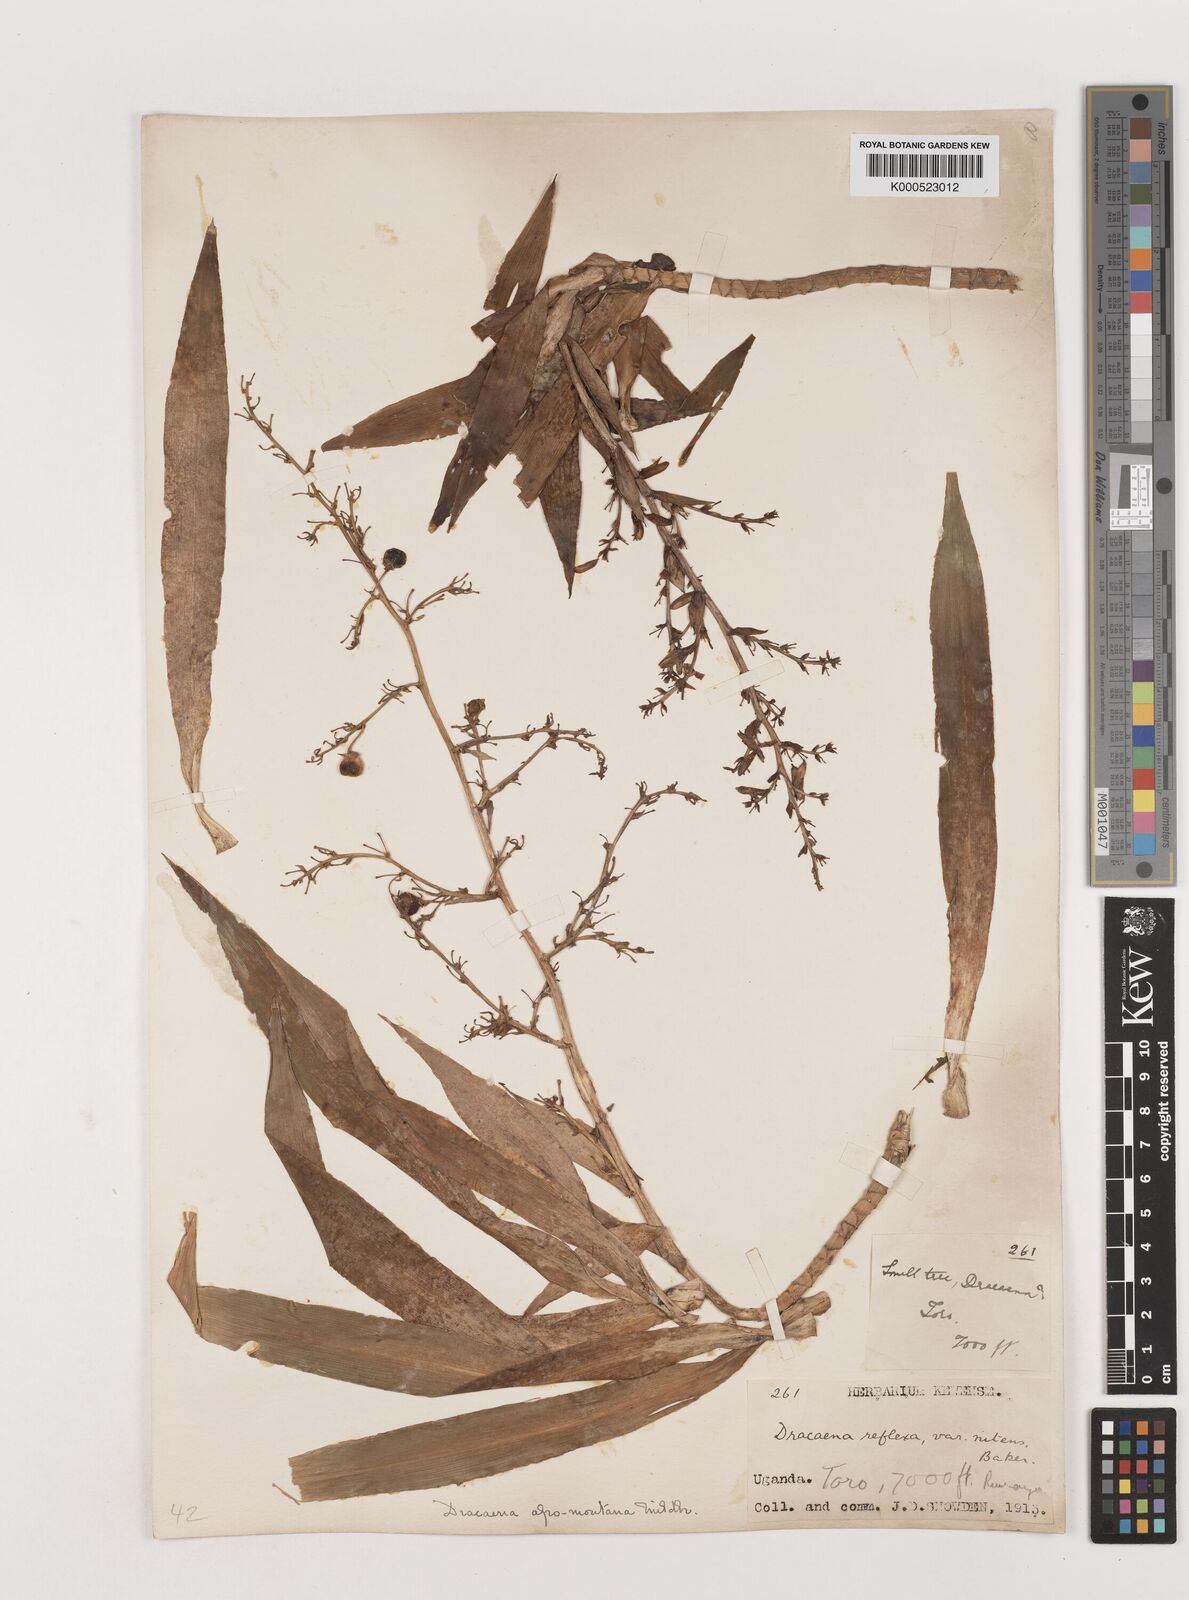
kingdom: Plantae
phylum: Tracheophyta
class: Liliopsida
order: Asparagales
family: Asparagaceae
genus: Dracaena
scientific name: Dracaena afromontana
